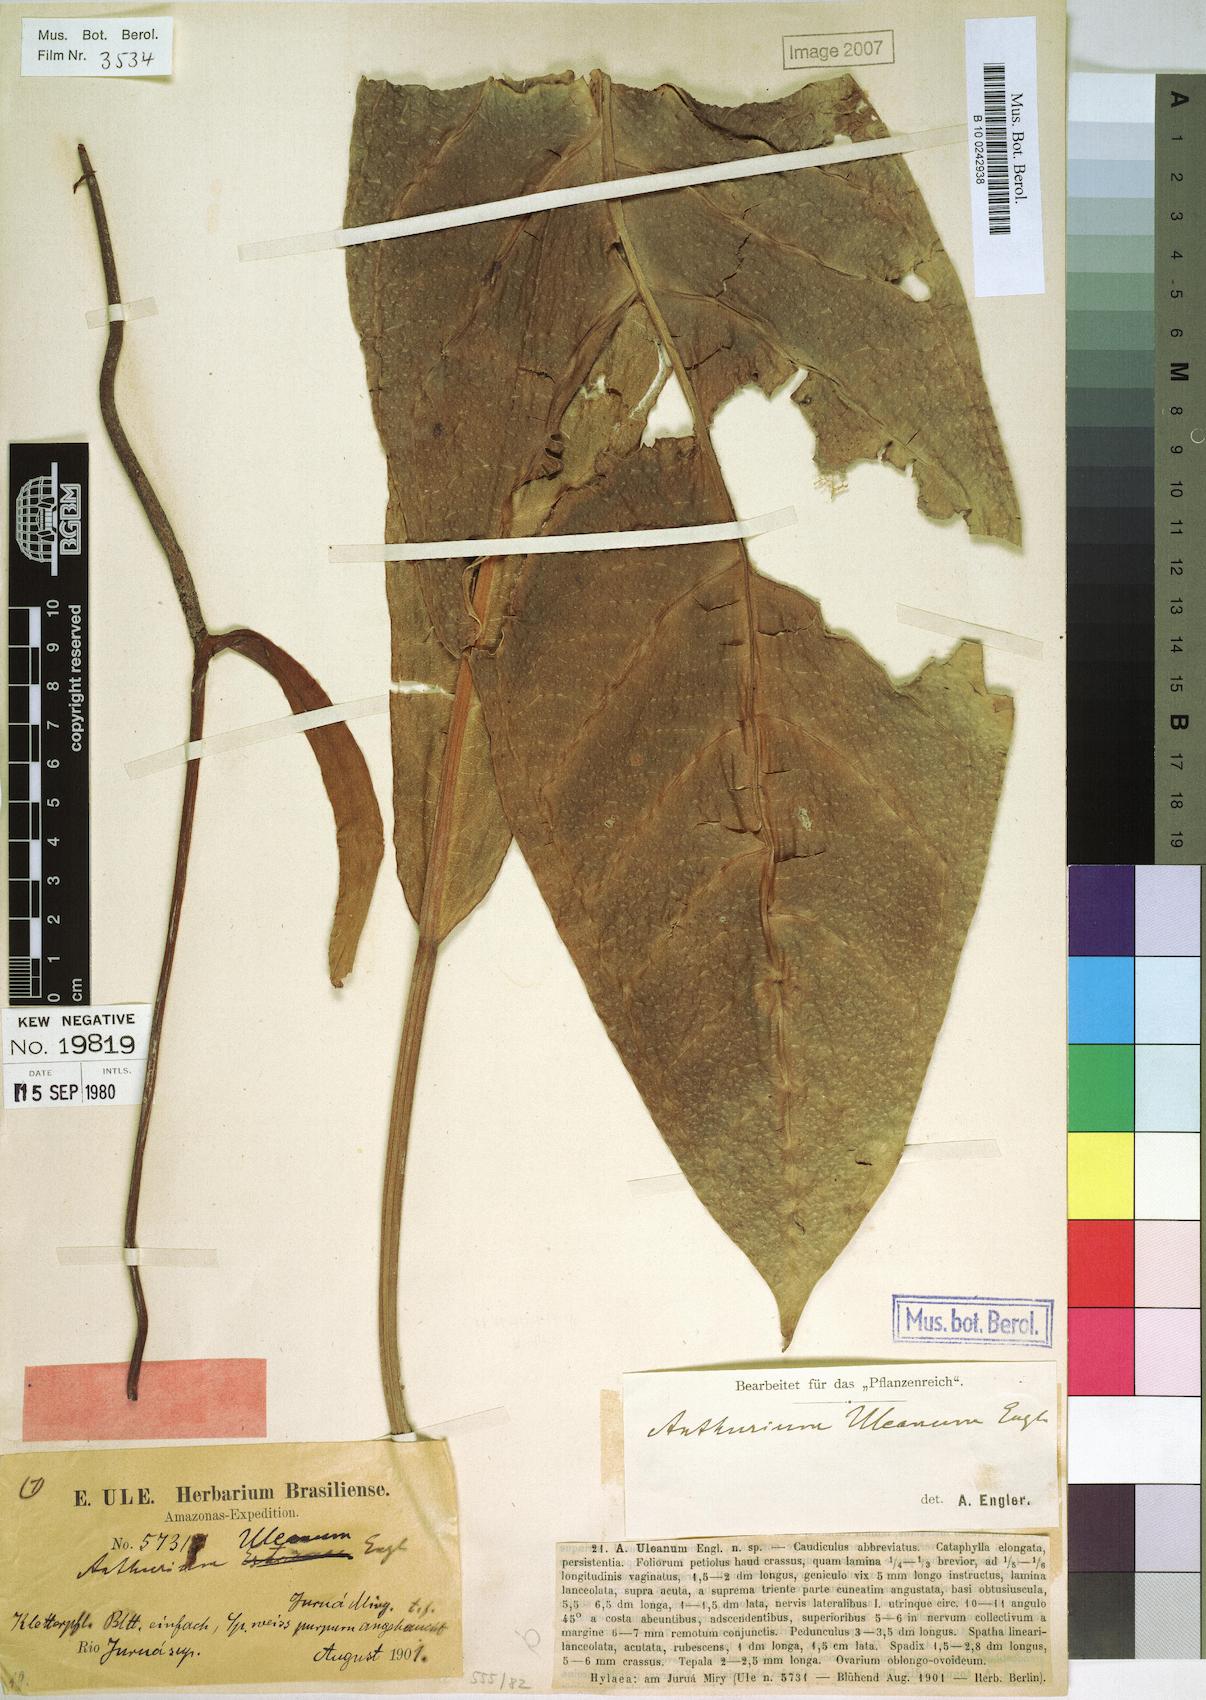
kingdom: Plantae
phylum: Tracheophyta
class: Liliopsida
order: Alismatales
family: Araceae
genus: Anthurium
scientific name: Anthurium uleanum
